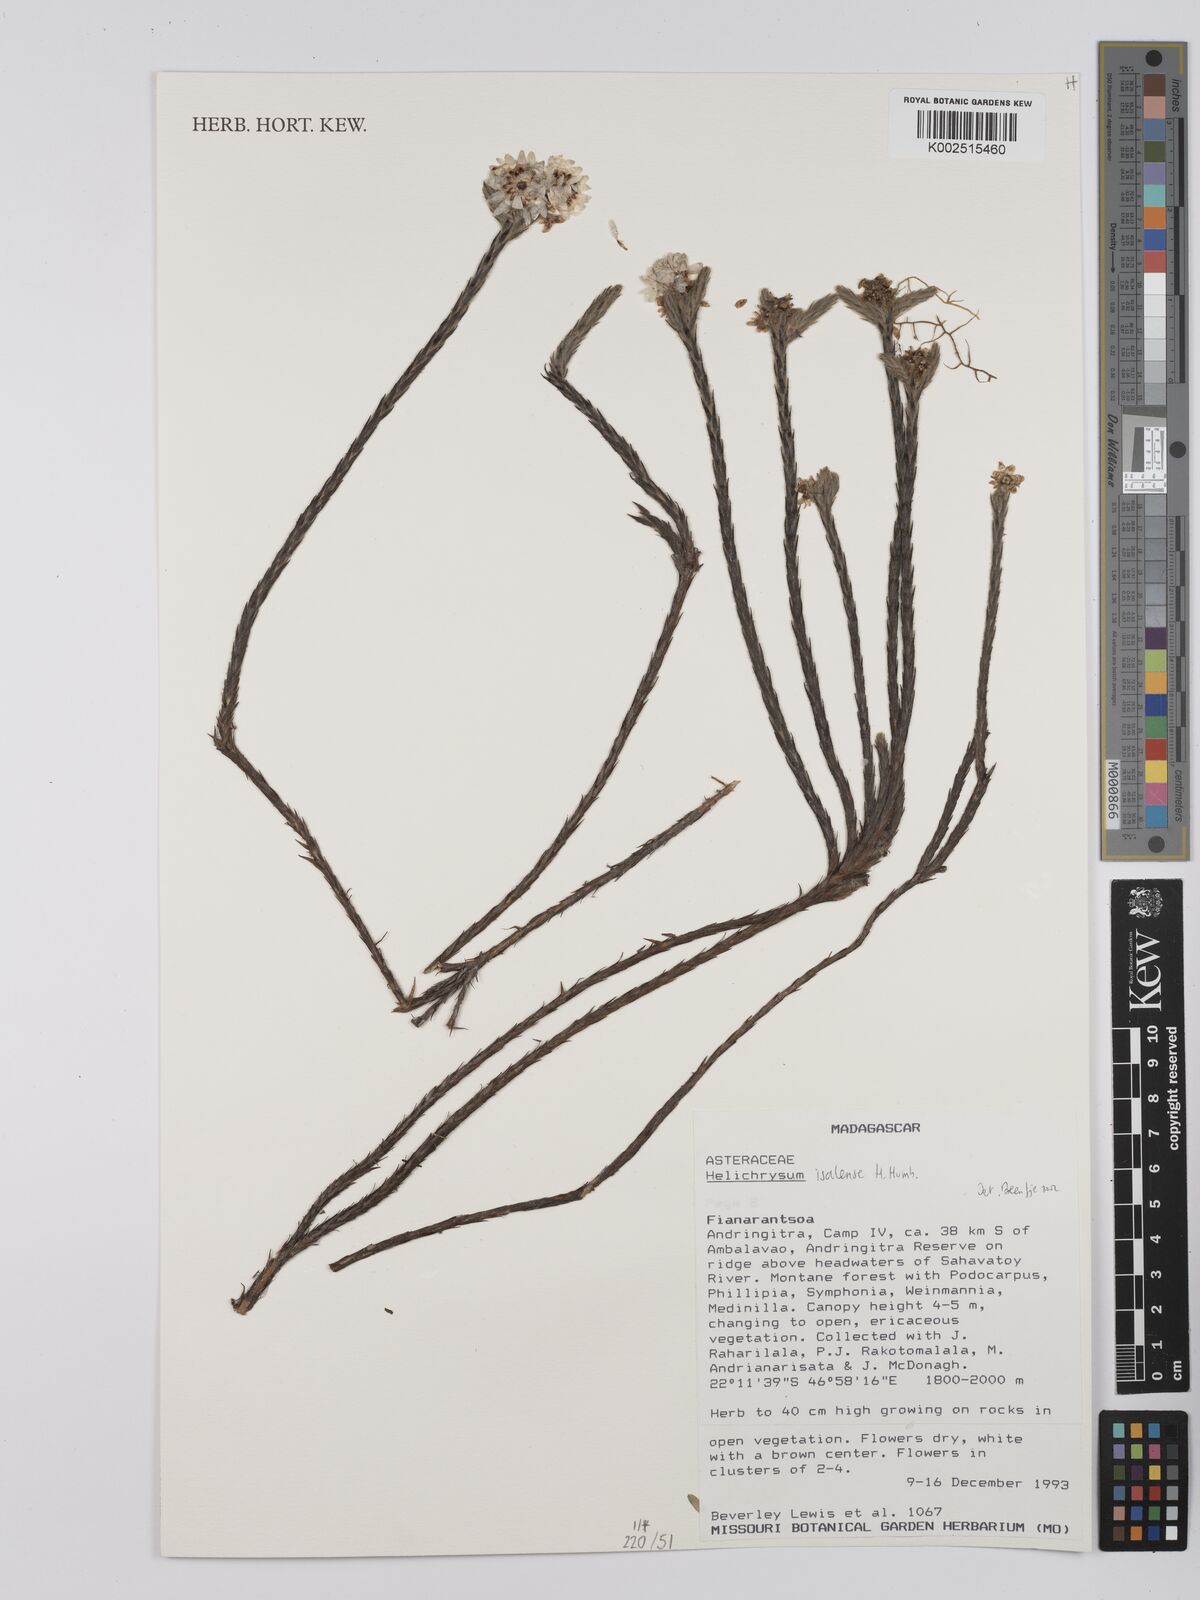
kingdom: Plantae
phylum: Tracheophyta
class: Magnoliopsida
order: Asterales
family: Asteraceae
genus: Helichrysum
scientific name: Helichrysum isalense
